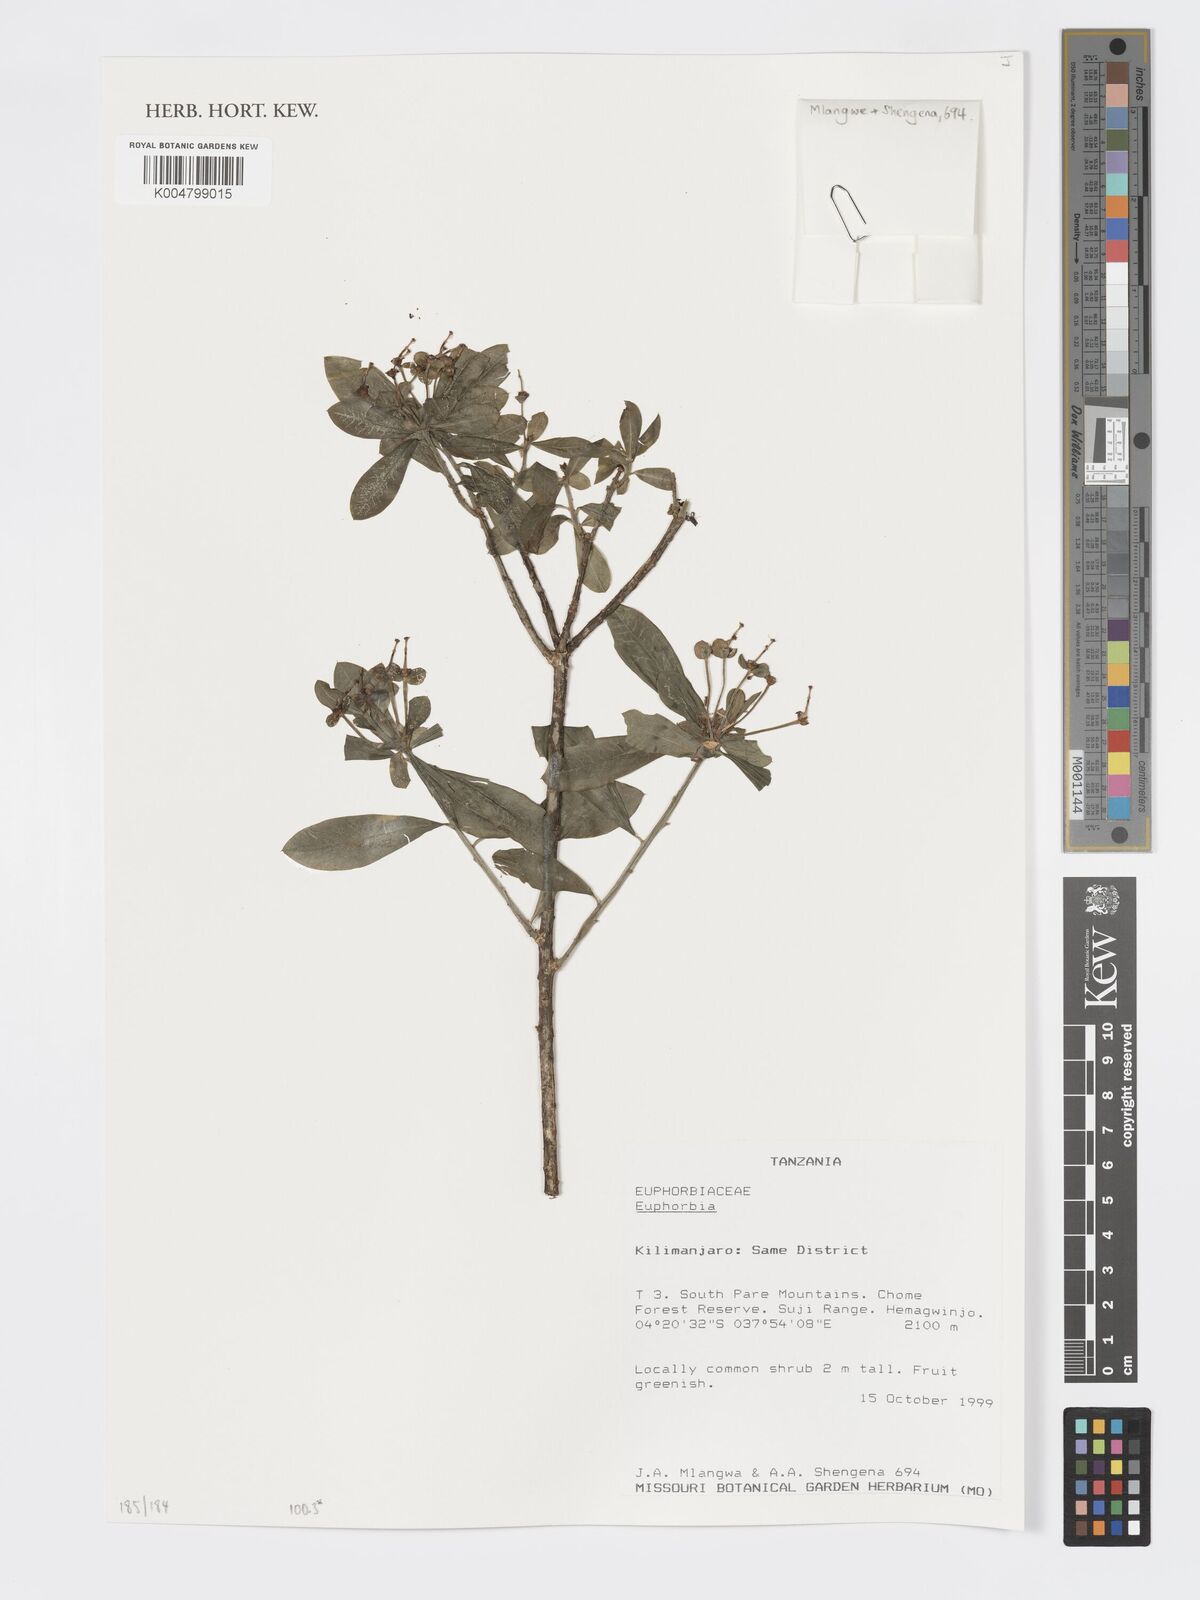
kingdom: Plantae
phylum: Tracheophyta
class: Magnoliopsida
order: Malpighiales
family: Euphorbiaceae
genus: Euphorbia
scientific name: Euphorbia
